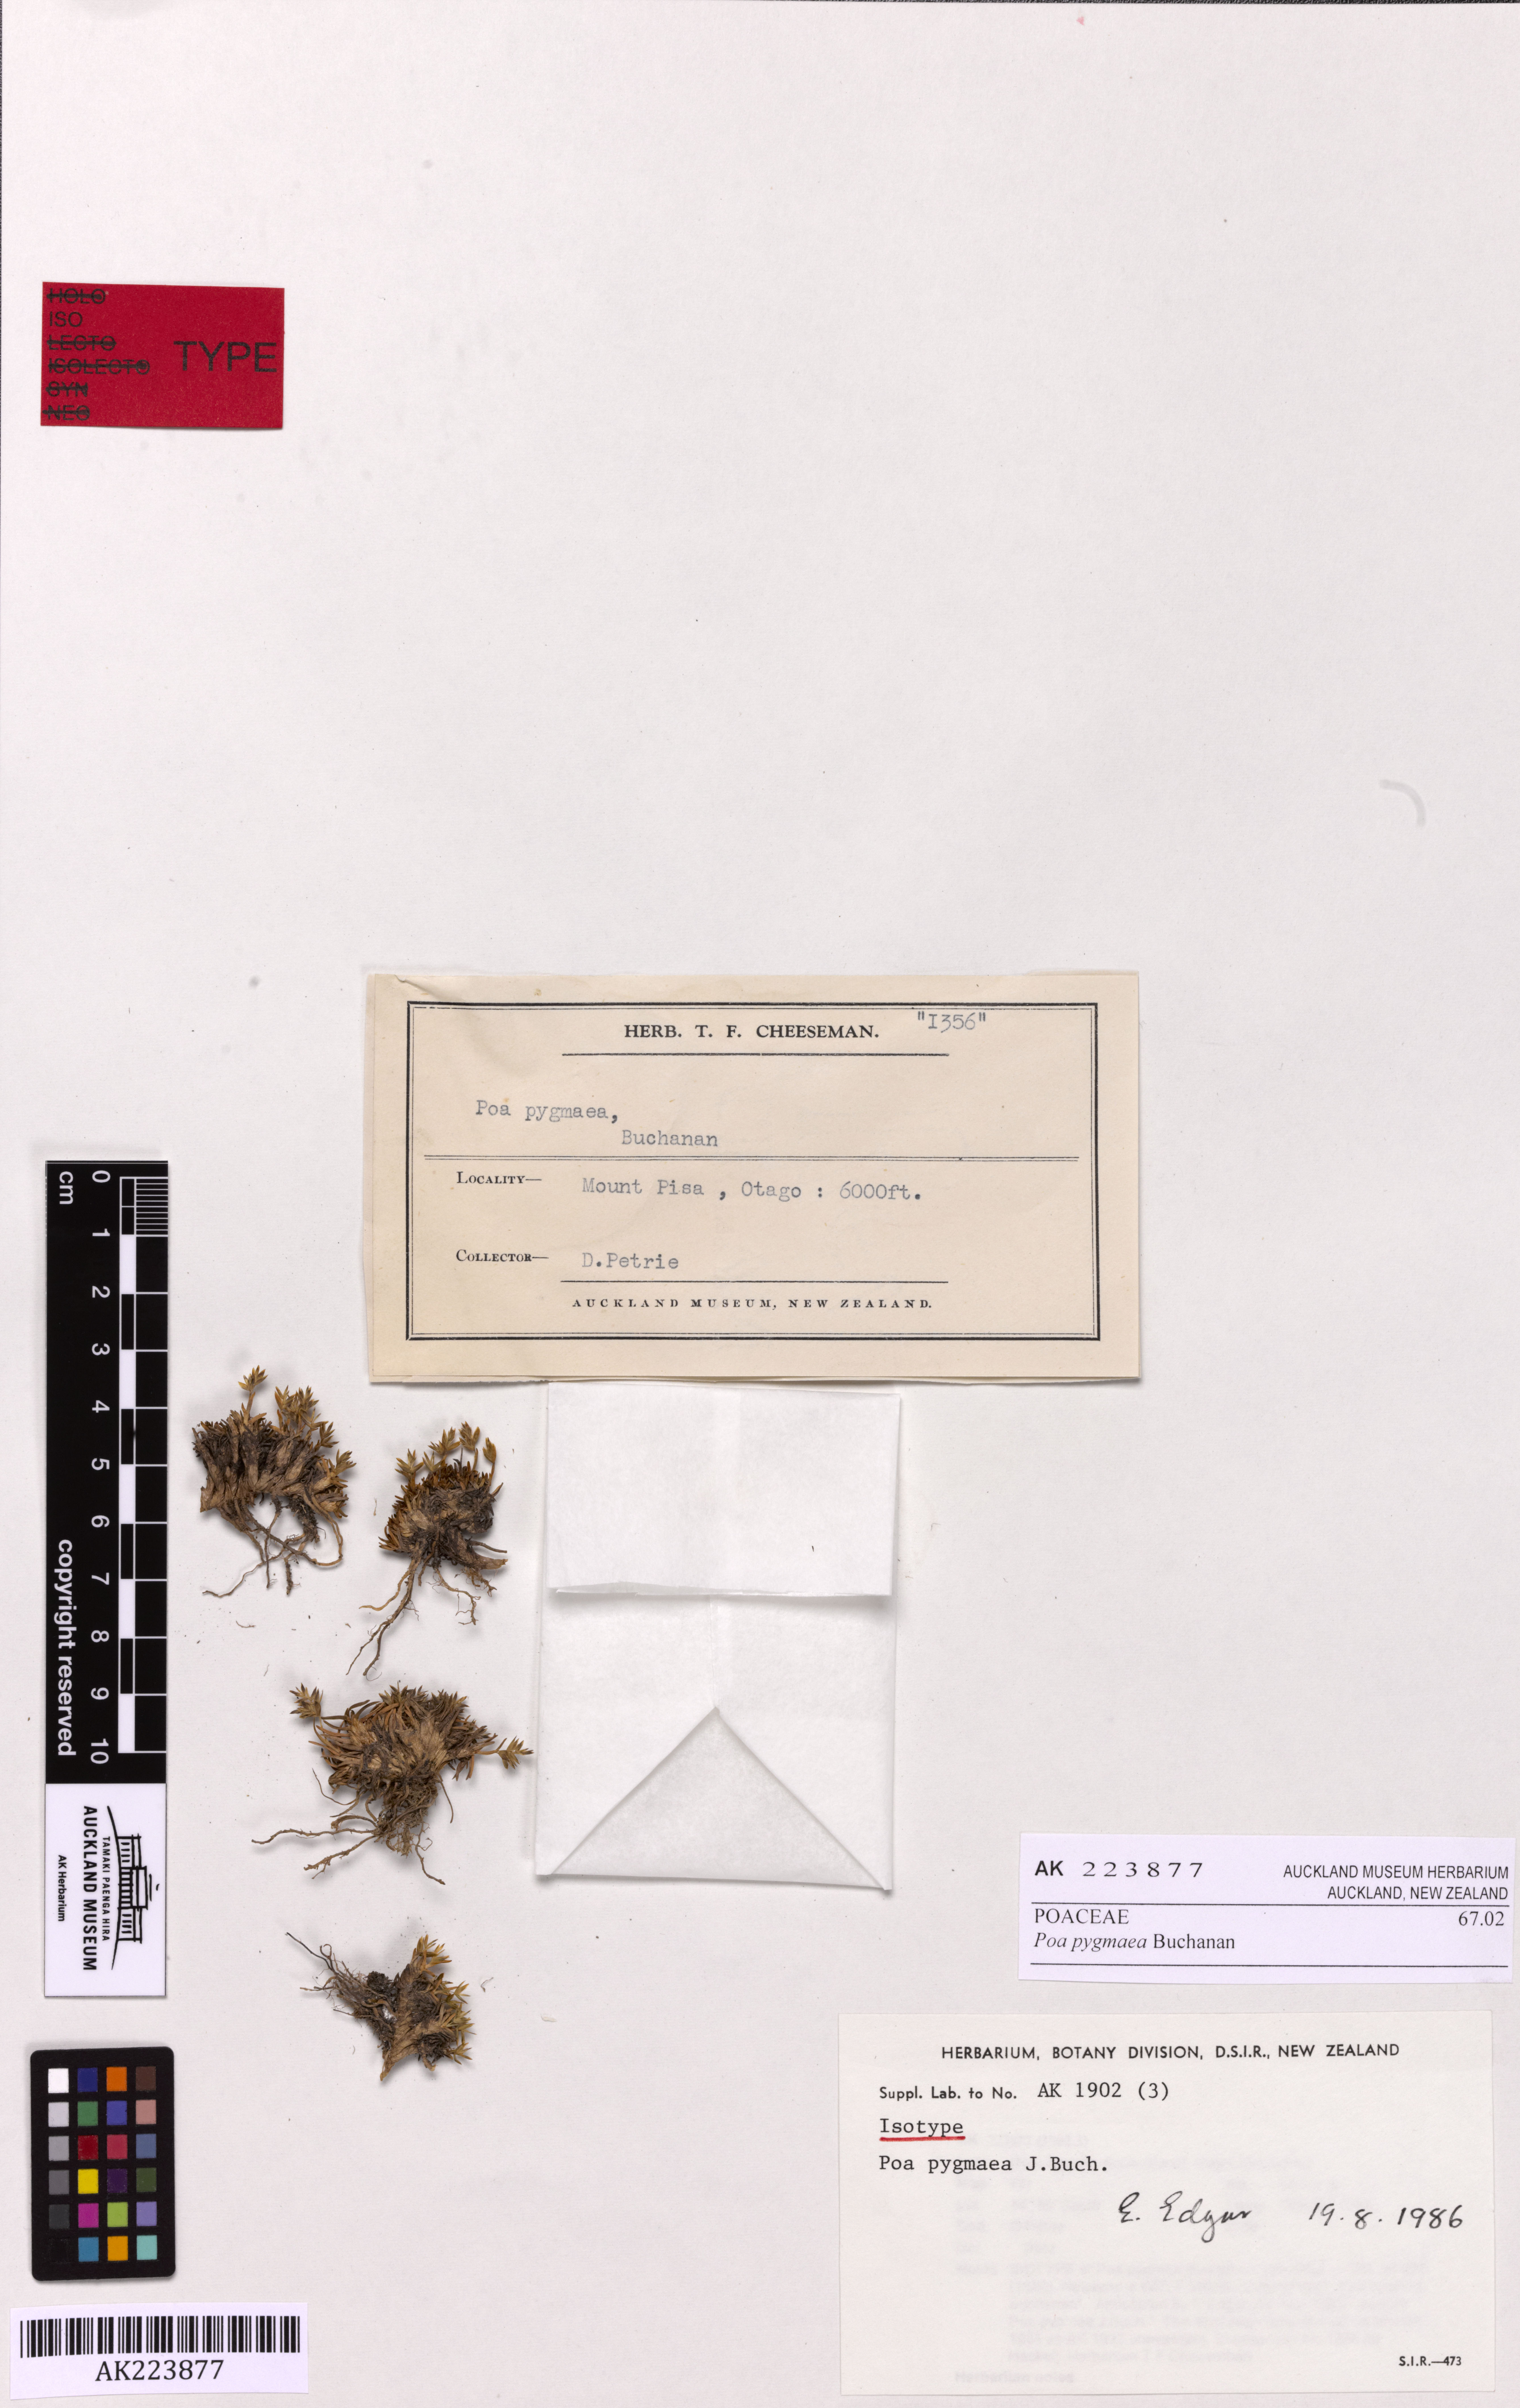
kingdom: Plantae
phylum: Tracheophyta
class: Liliopsida
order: Poales
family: Poaceae
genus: Poa
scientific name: Poa pygmaea
